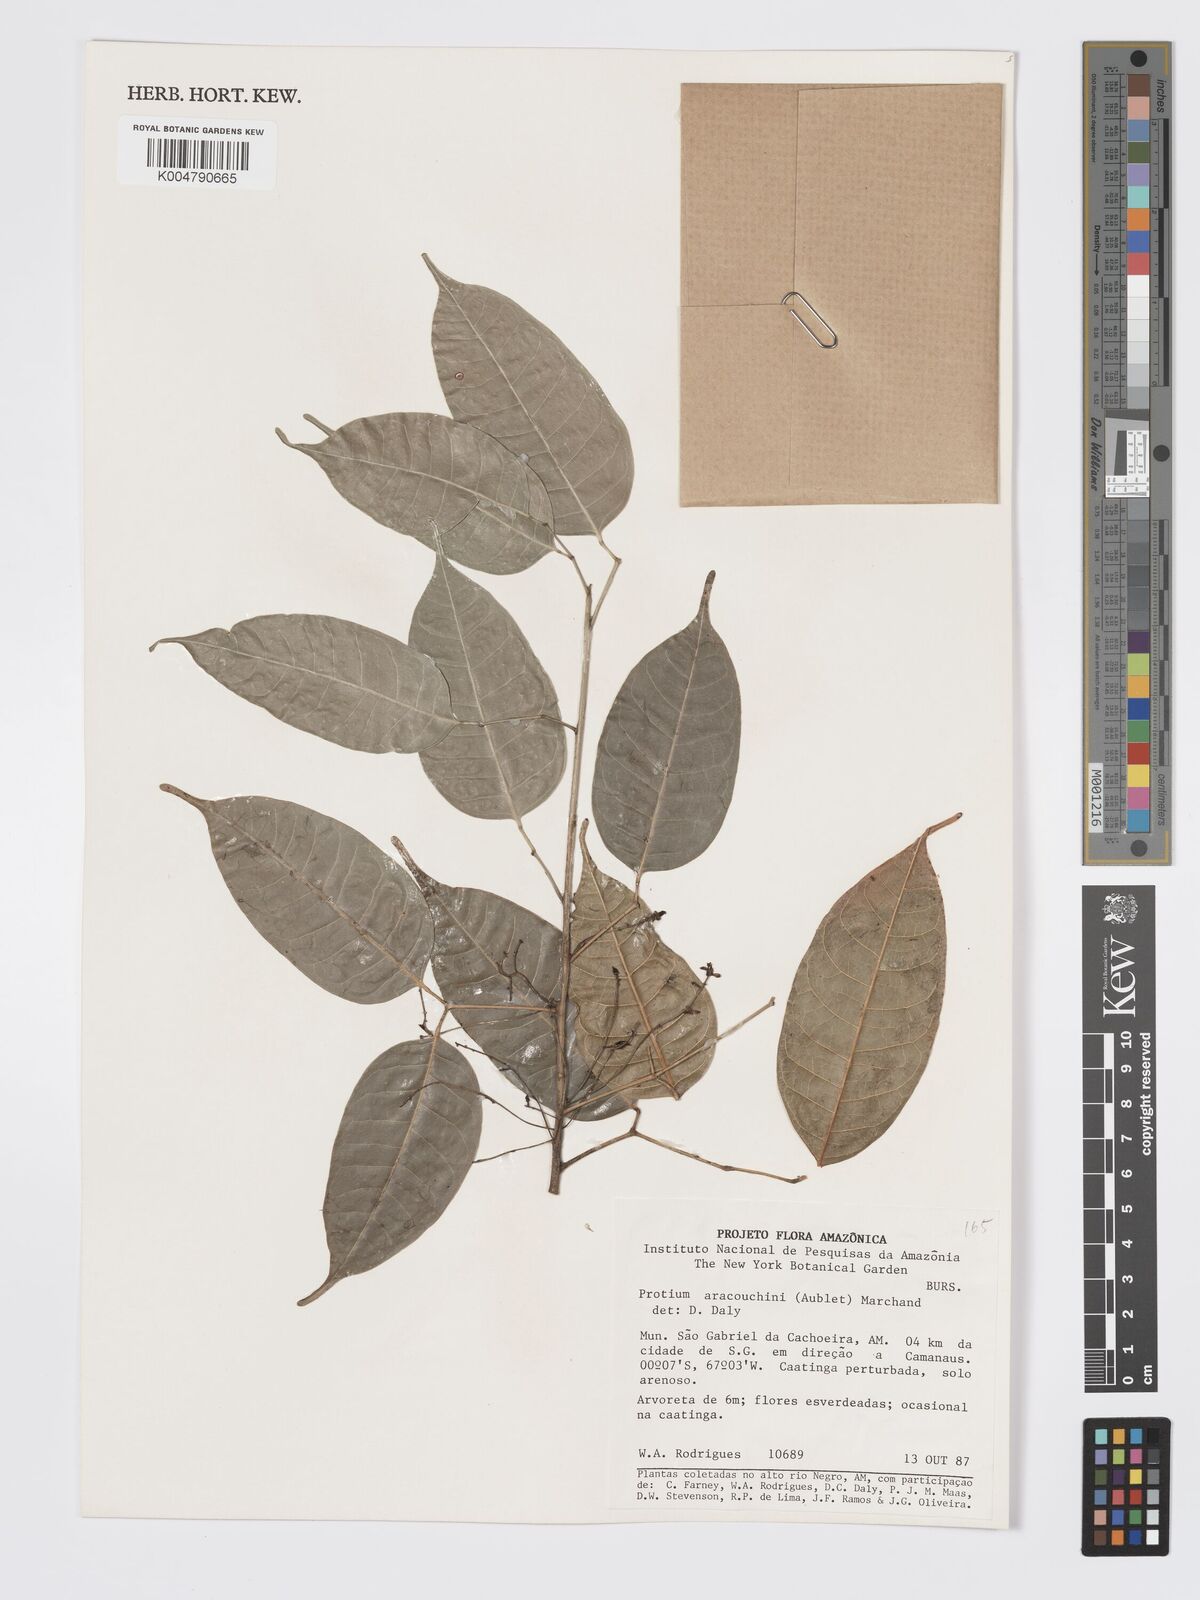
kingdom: Plantae
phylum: Tracheophyta
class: Magnoliopsida
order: Sapindales
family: Burseraceae
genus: Protium
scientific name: Protium aracouchini
